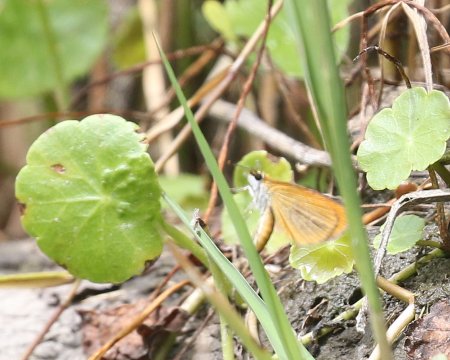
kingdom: Animalia
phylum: Arthropoda
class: Insecta
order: Lepidoptera
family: Hesperiidae
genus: Ancyloxypha
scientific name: Ancyloxypha numitor
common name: Least Skipper
